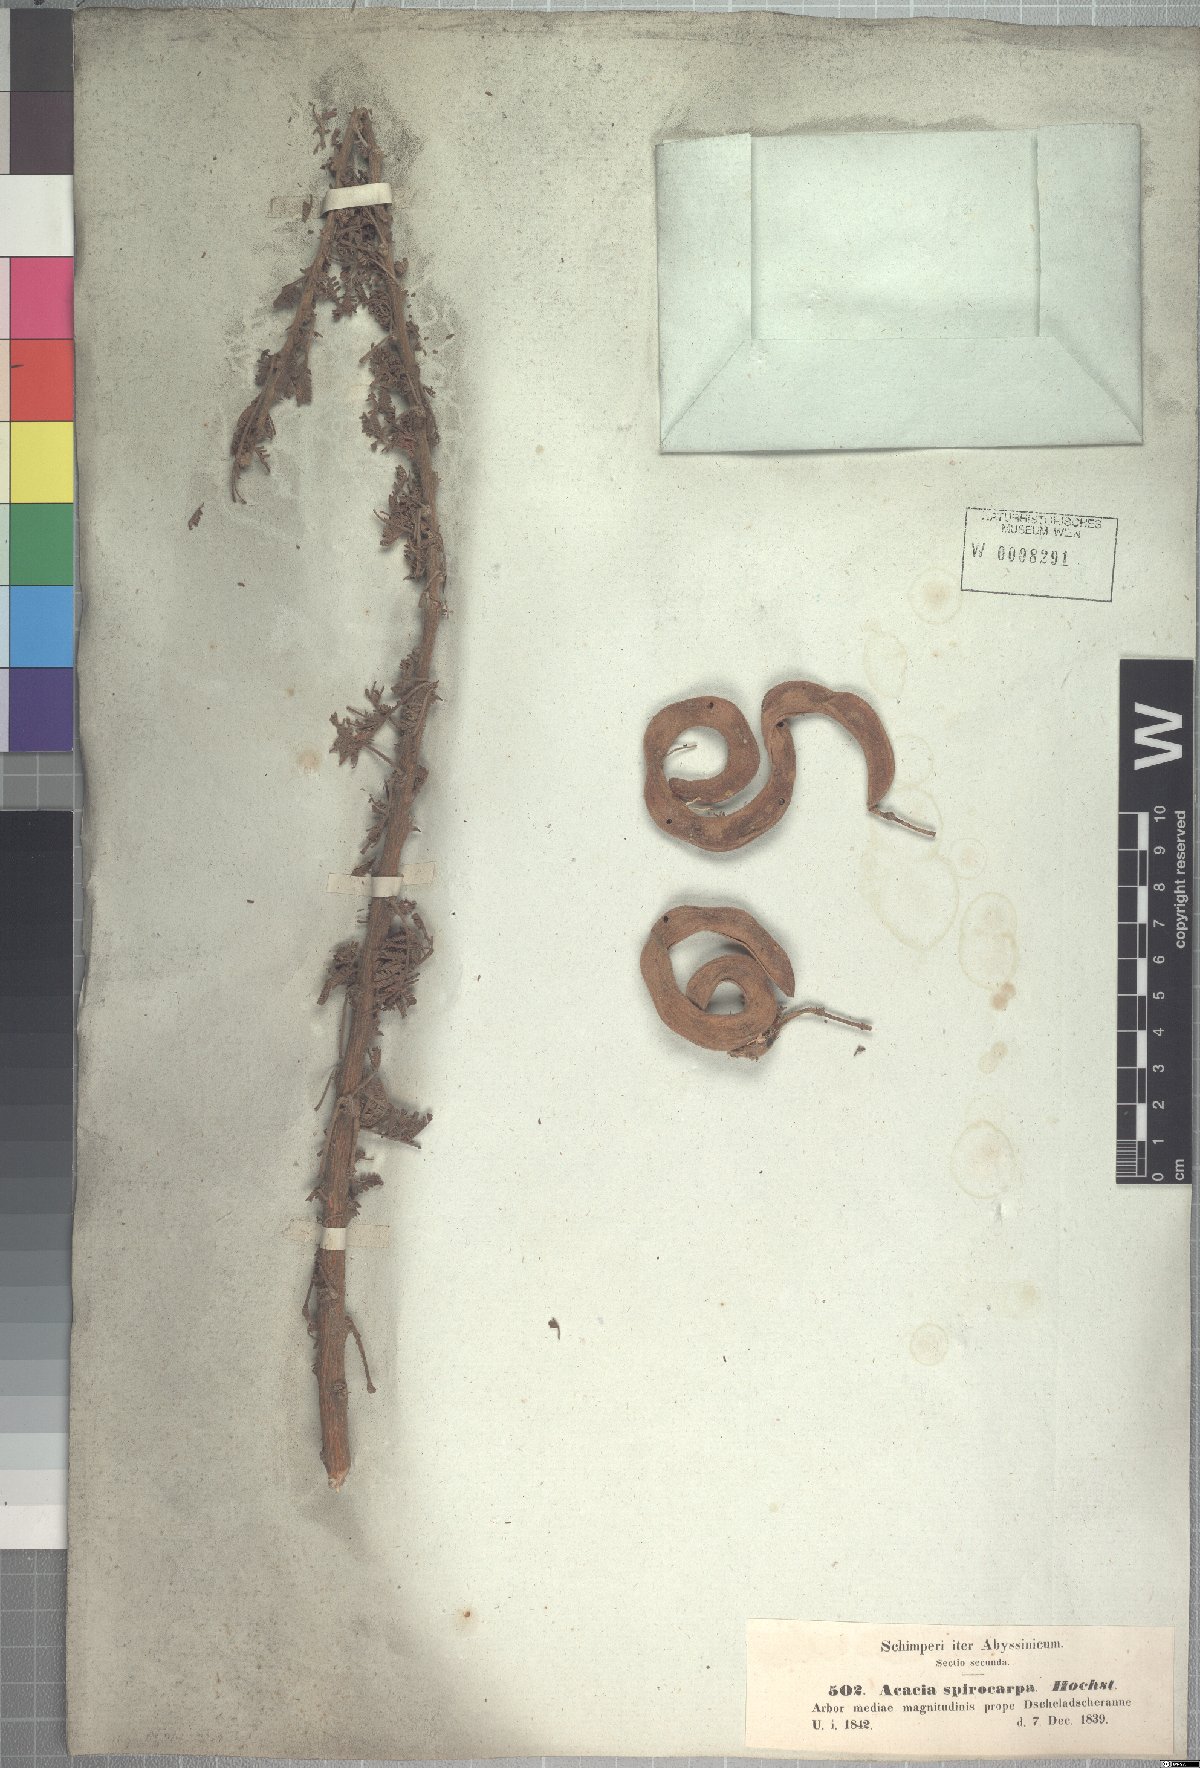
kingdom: Plantae
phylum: Tracheophyta
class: Magnoliopsida
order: Fabales
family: Fabaceae
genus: Vachellia
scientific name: Vachellia tortilis
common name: Umbrella thorn acacia
